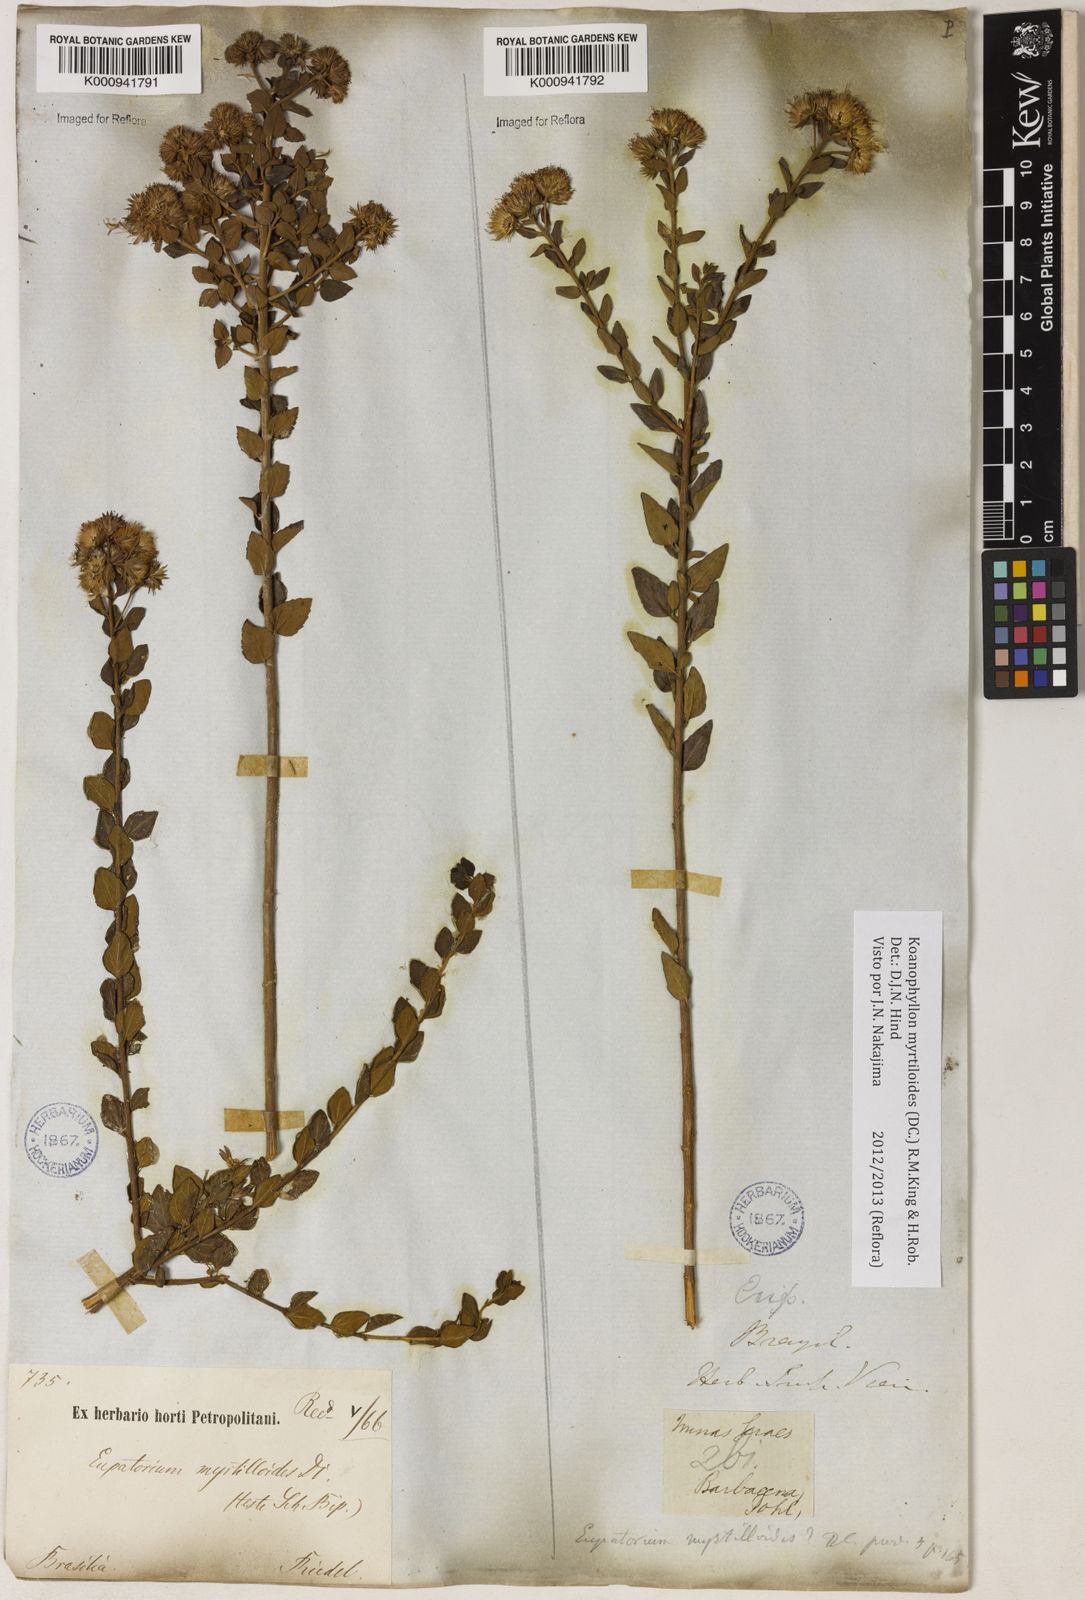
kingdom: Plantae
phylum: Tracheophyta
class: Magnoliopsida
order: Asterales
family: Asteraceae
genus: Koanophyllon
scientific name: Koanophyllon myrtilloides
